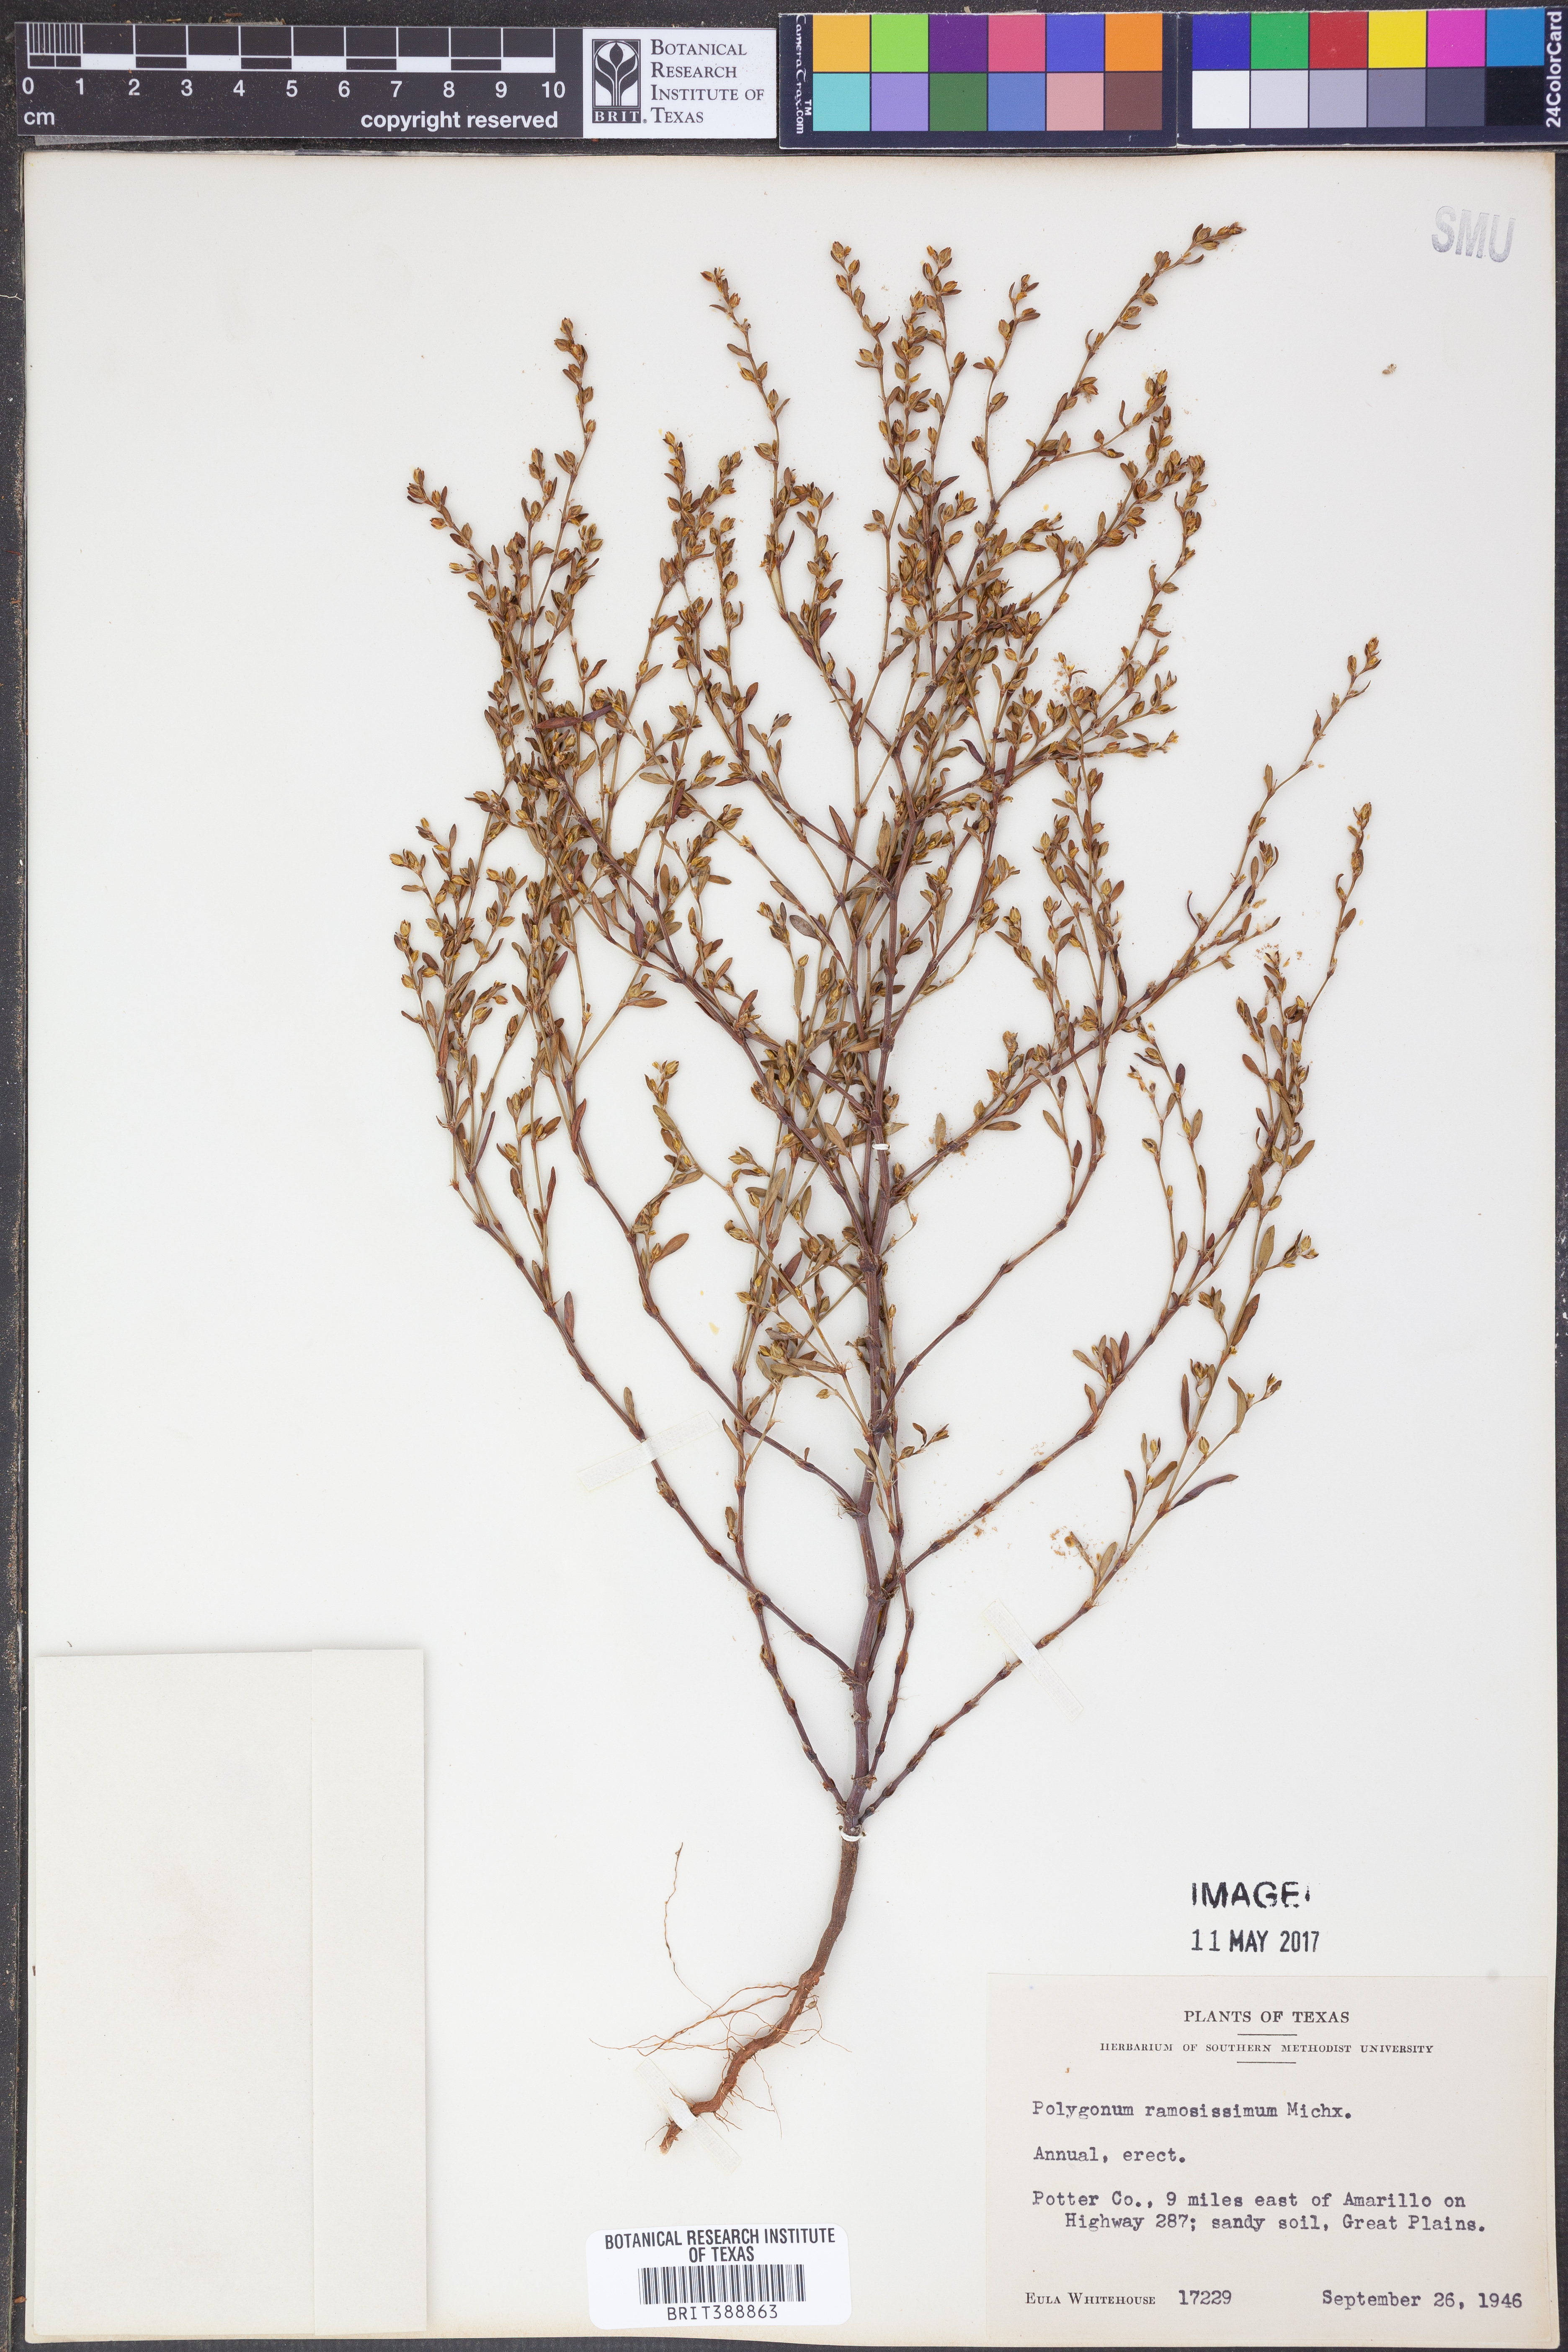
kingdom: Plantae
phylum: Tracheophyta
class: Magnoliopsida
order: Caryophyllales
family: Polygonaceae
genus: Polygonum
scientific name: Polygonum ramosissimum
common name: Bushy knotweed
